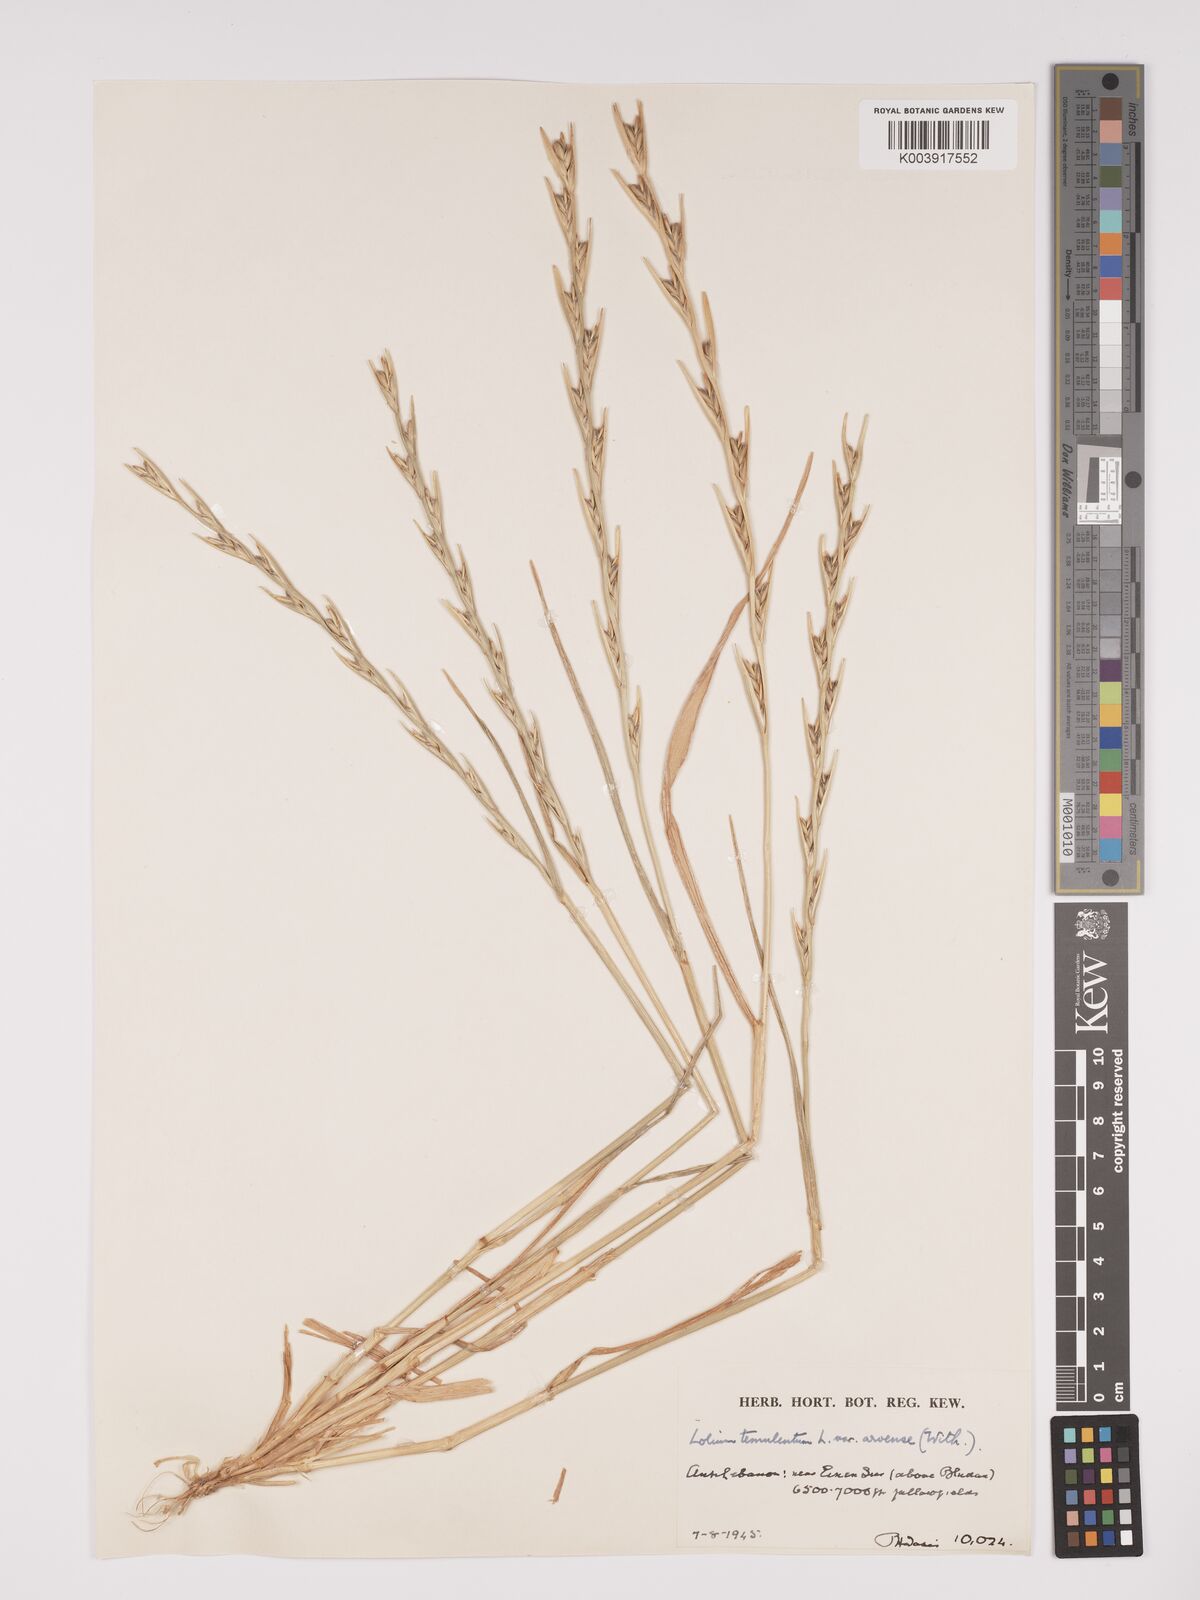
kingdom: Plantae
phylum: Tracheophyta
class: Liliopsida
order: Poales
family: Poaceae
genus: Lolium
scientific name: Lolium temulentum
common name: Darnel
